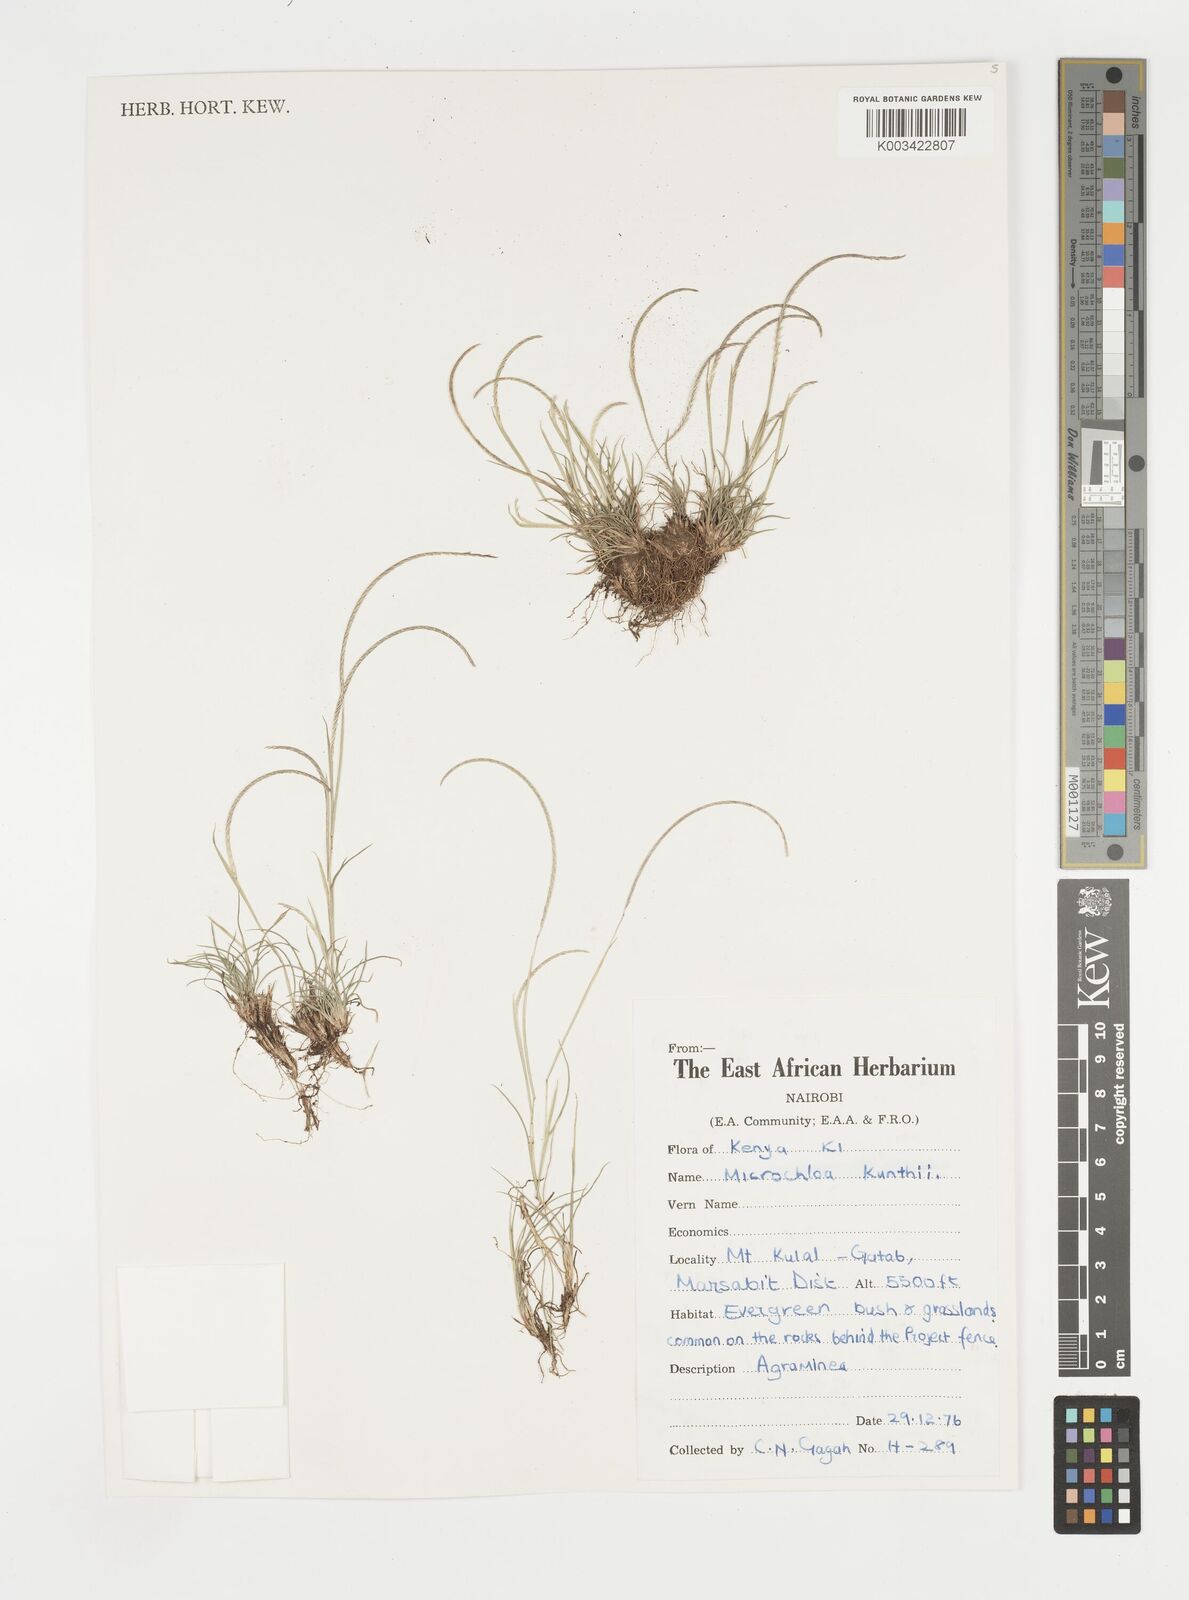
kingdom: Plantae
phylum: Tracheophyta
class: Liliopsida
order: Poales
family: Poaceae
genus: Microchloa
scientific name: Microchloa kunthii
